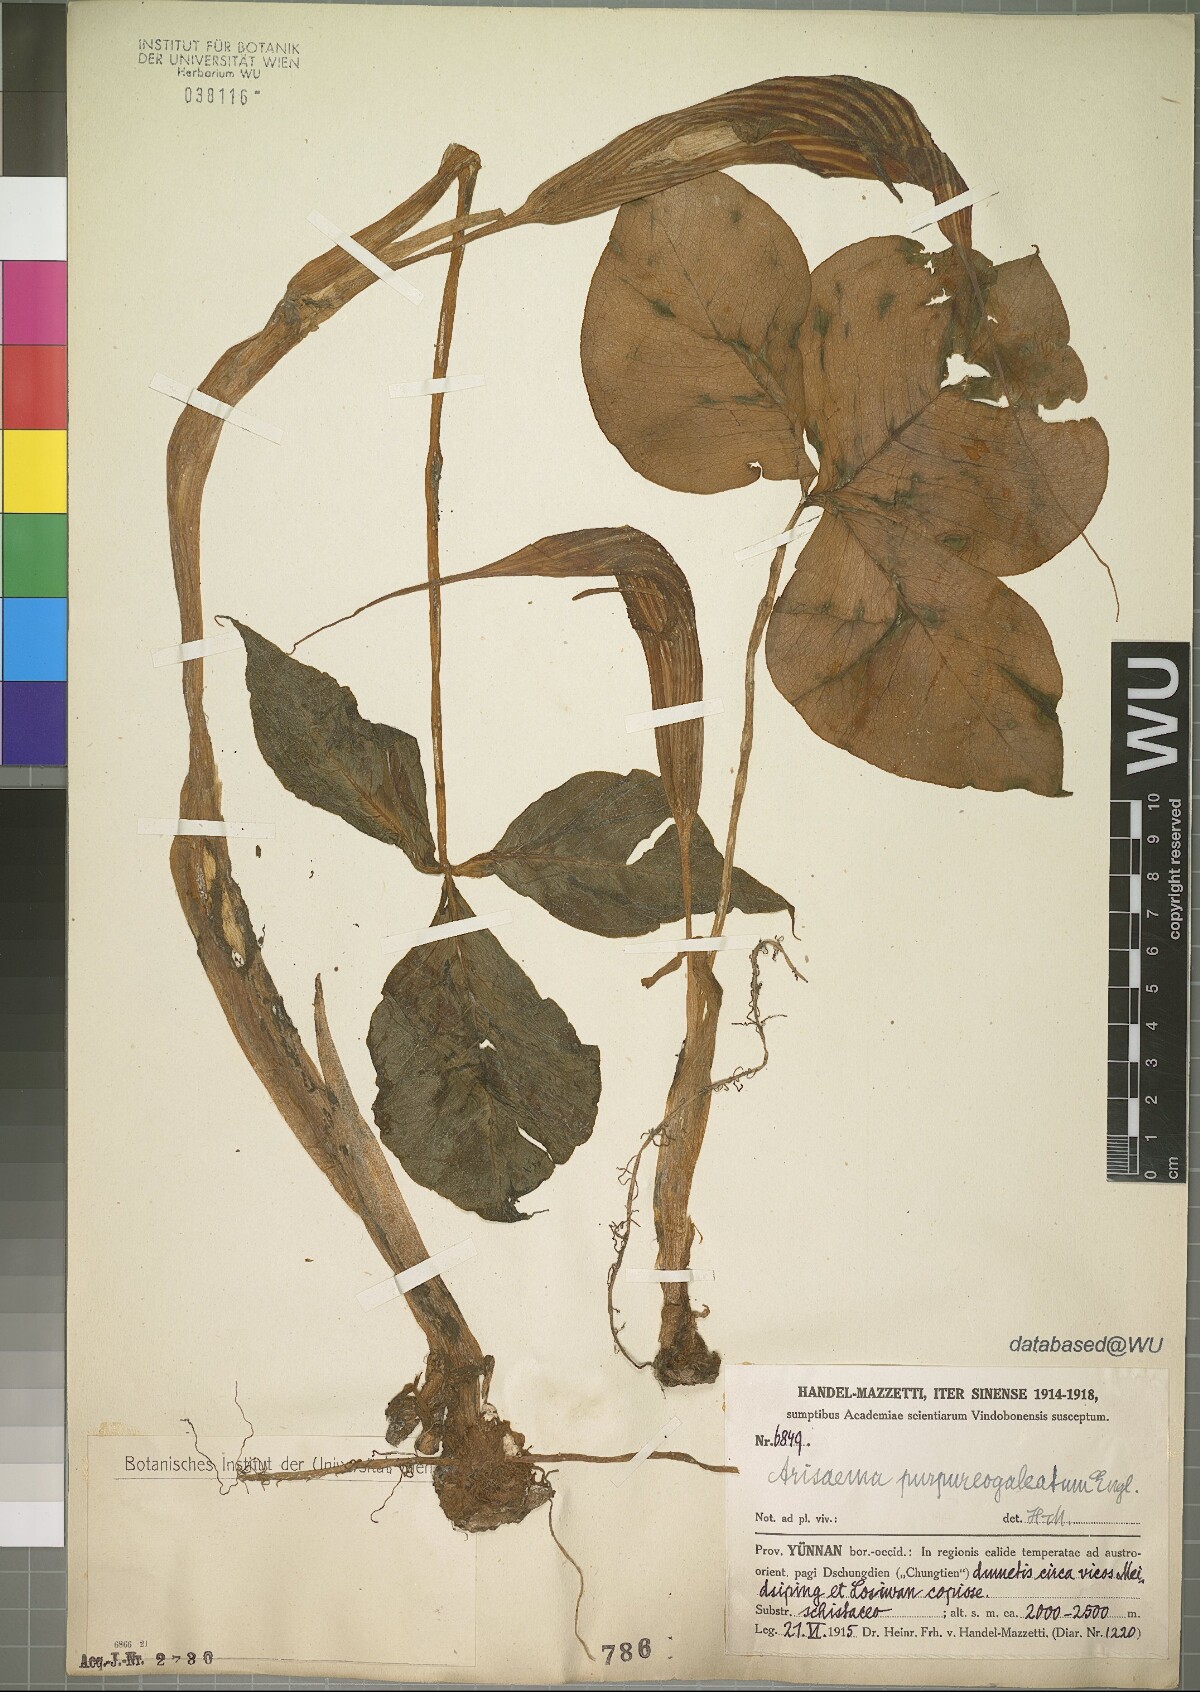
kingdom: Plantae
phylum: Tracheophyta
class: Liliopsida
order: Alismatales
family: Araceae
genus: Arisaema
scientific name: Arisaema purpureogaleatum
